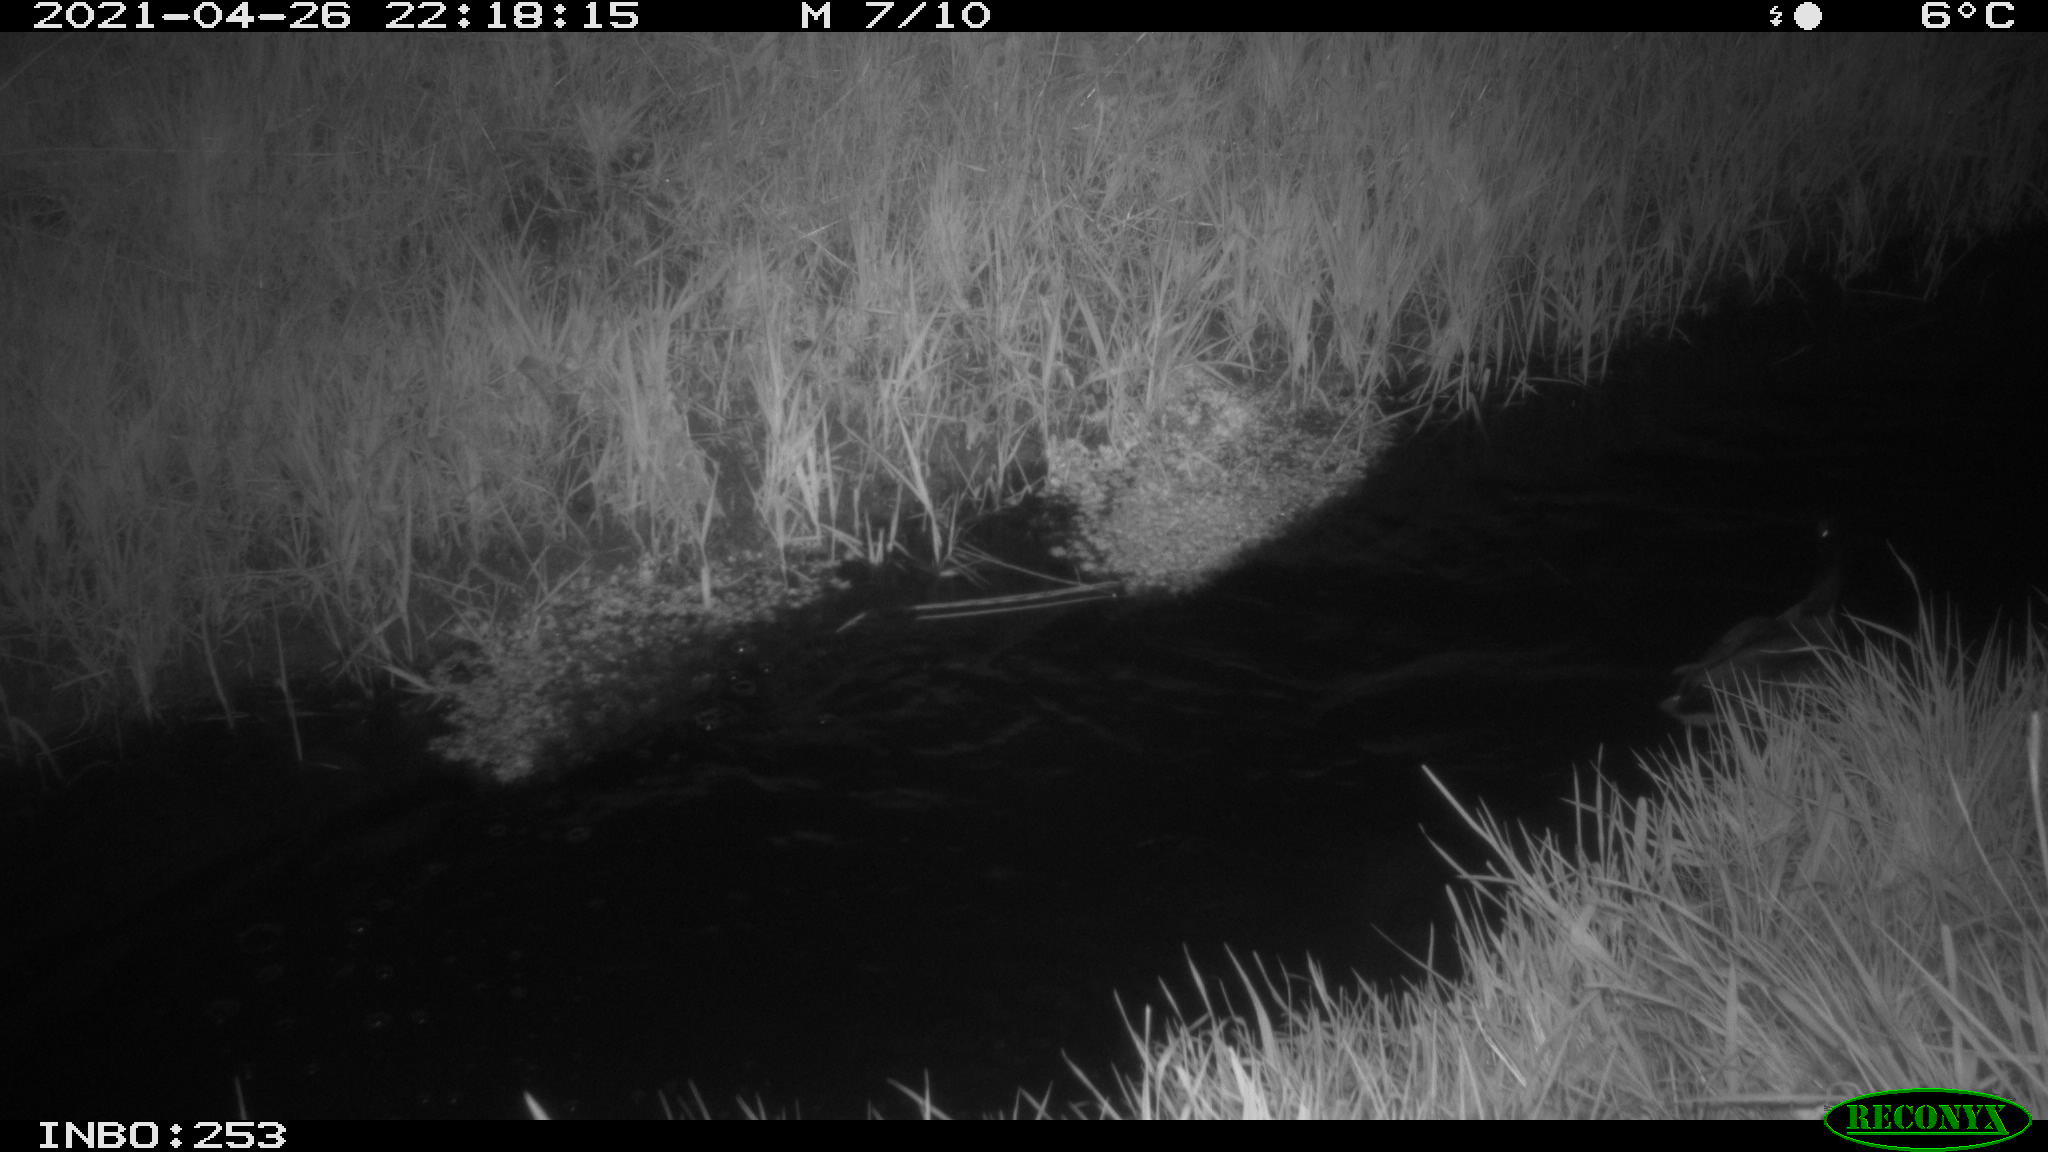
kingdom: Animalia
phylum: Chordata
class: Aves
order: Anseriformes
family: Anatidae
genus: Anas
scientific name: Anas platyrhynchos
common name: Mallard
